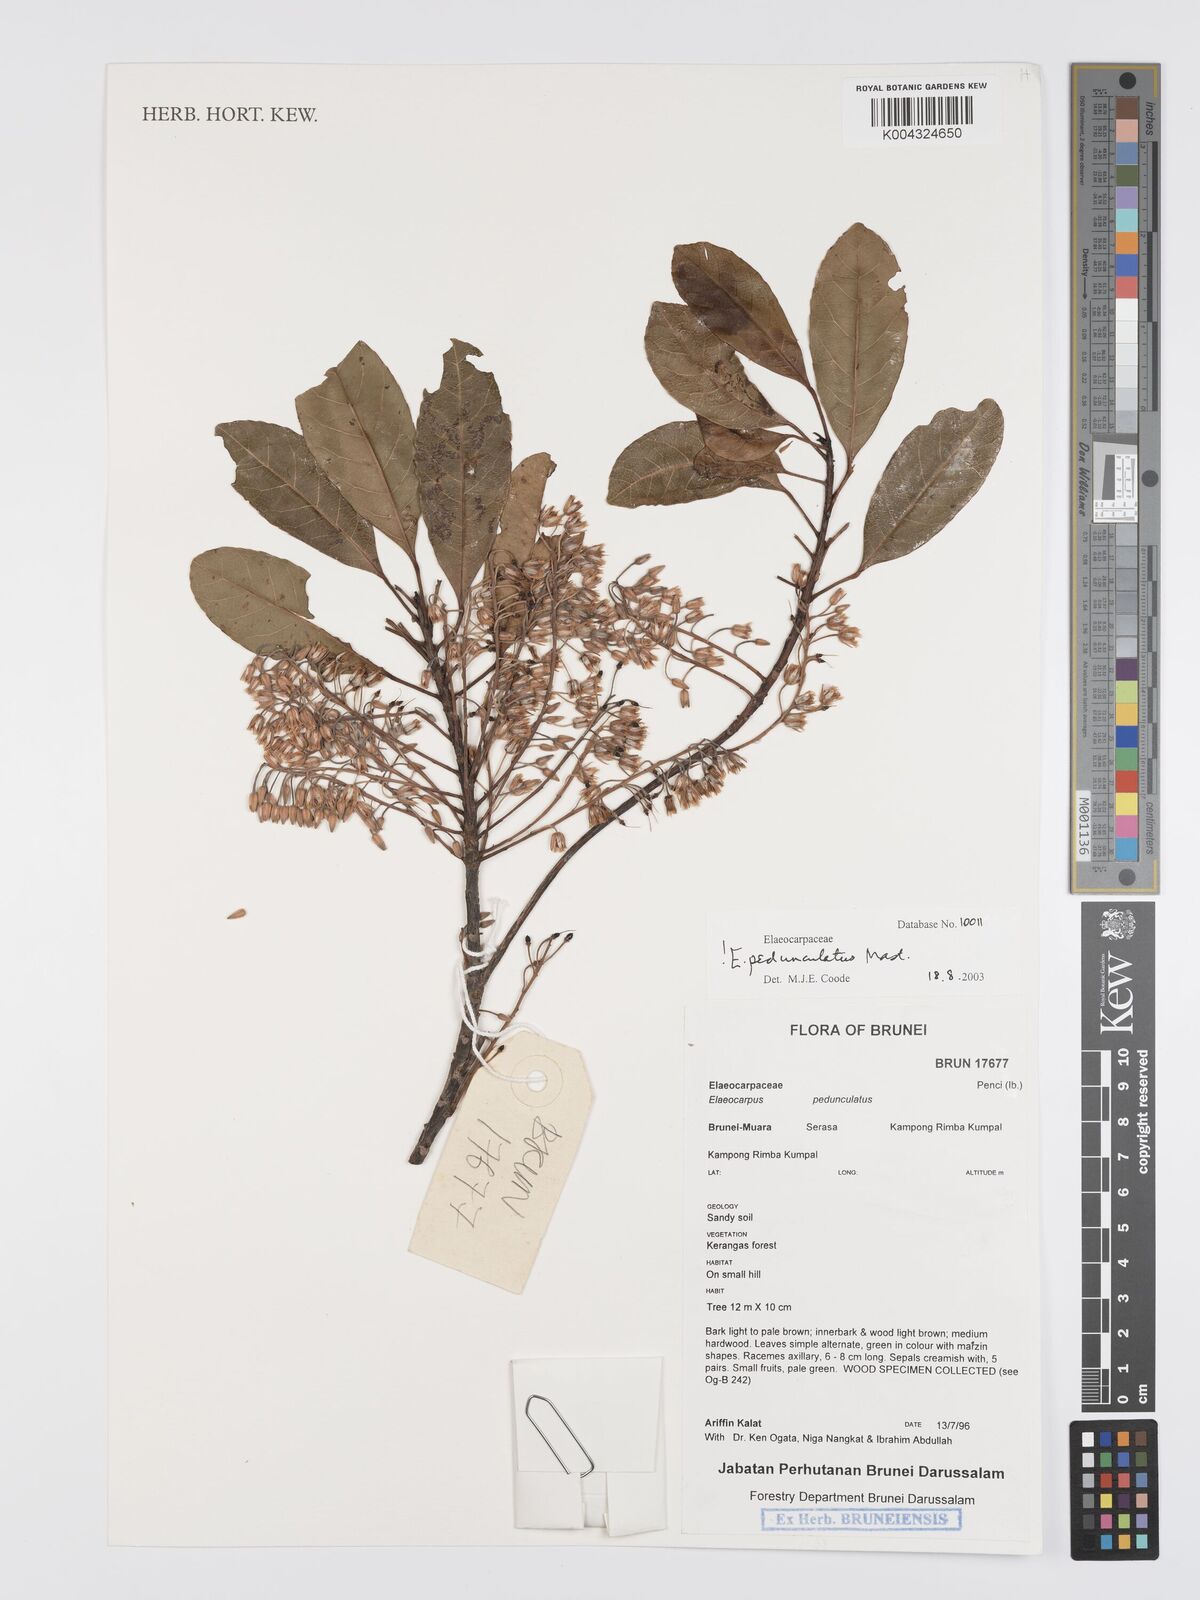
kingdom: Plantae
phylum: Tracheophyta
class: Magnoliopsida
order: Oxalidales
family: Elaeocarpaceae
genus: Elaeocarpus
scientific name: Elaeocarpus pedunculatus
